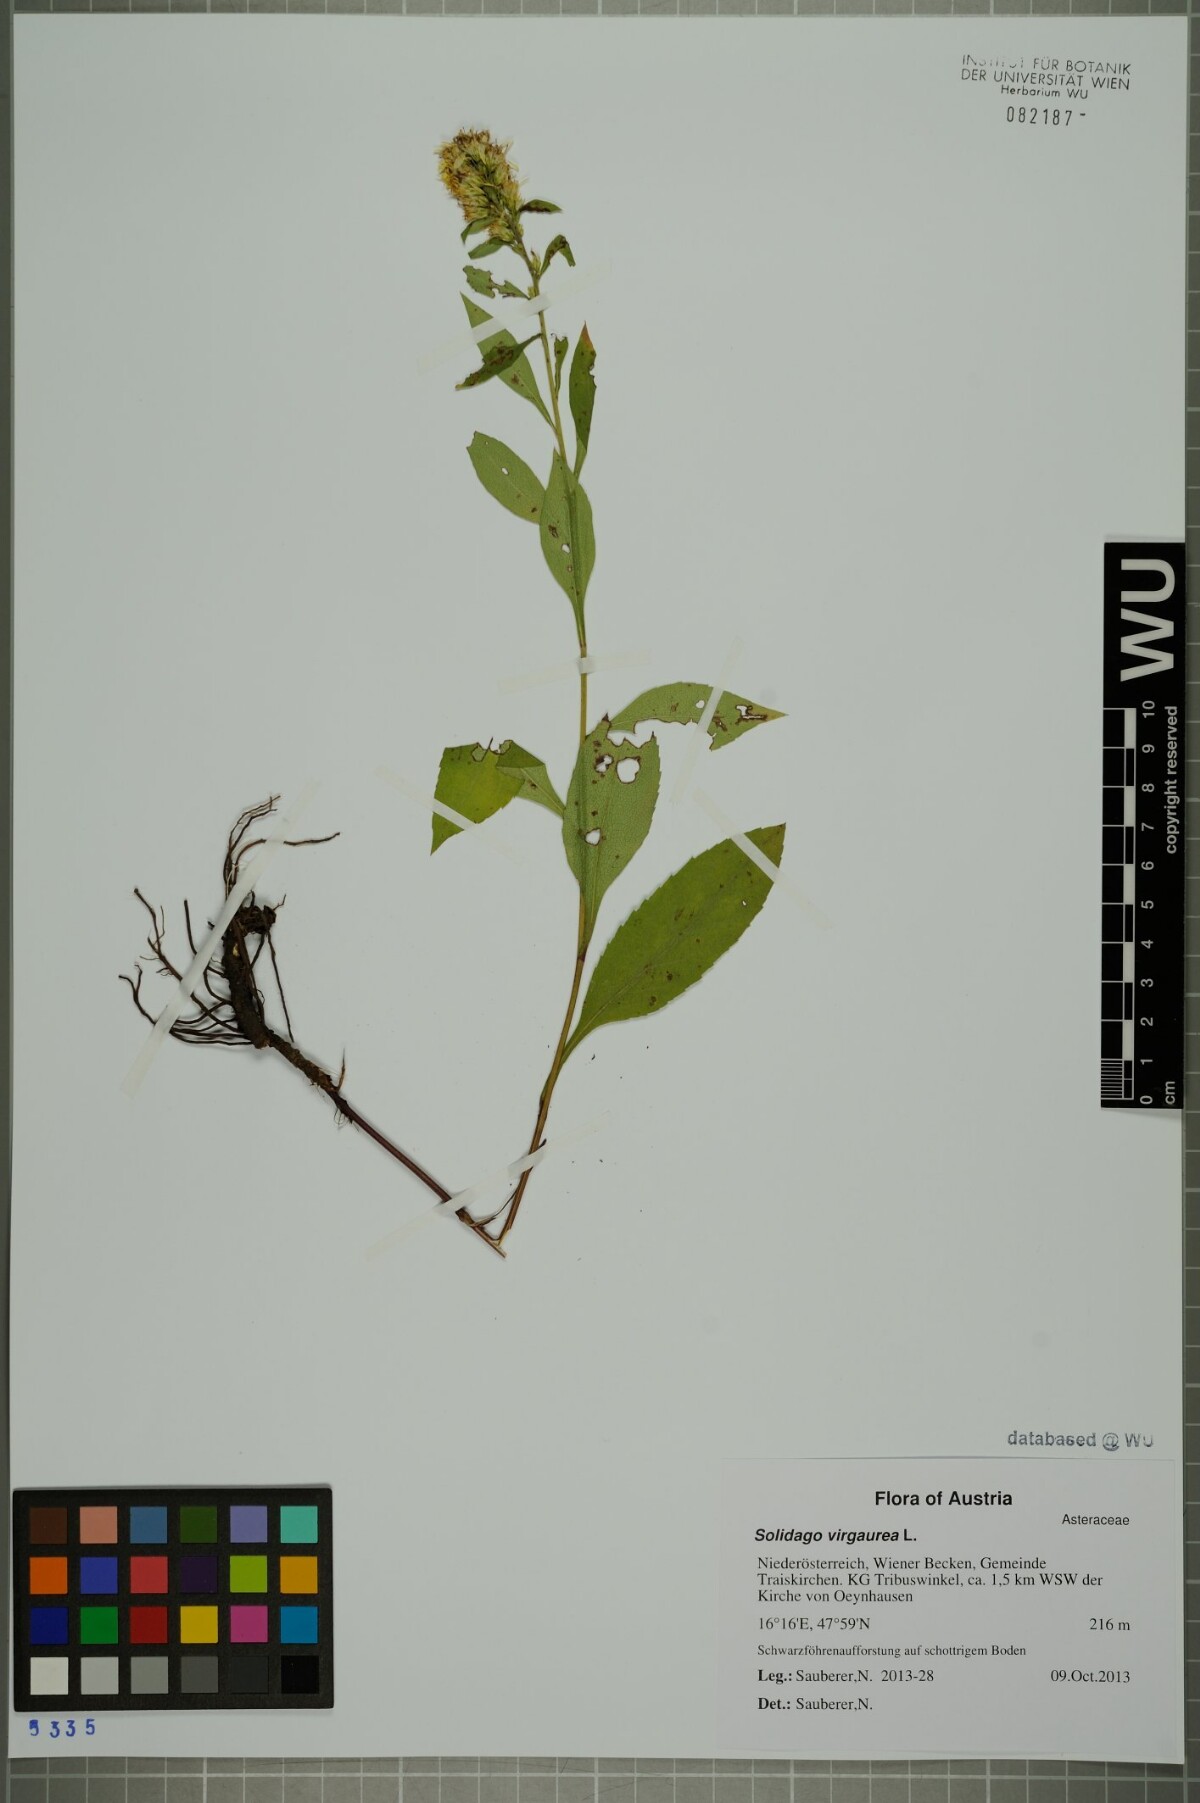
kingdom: Plantae
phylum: Tracheophyta
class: Magnoliopsida
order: Asterales
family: Asteraceae
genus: Solidago
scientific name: Solidago virgaurea
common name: Goldenrod
